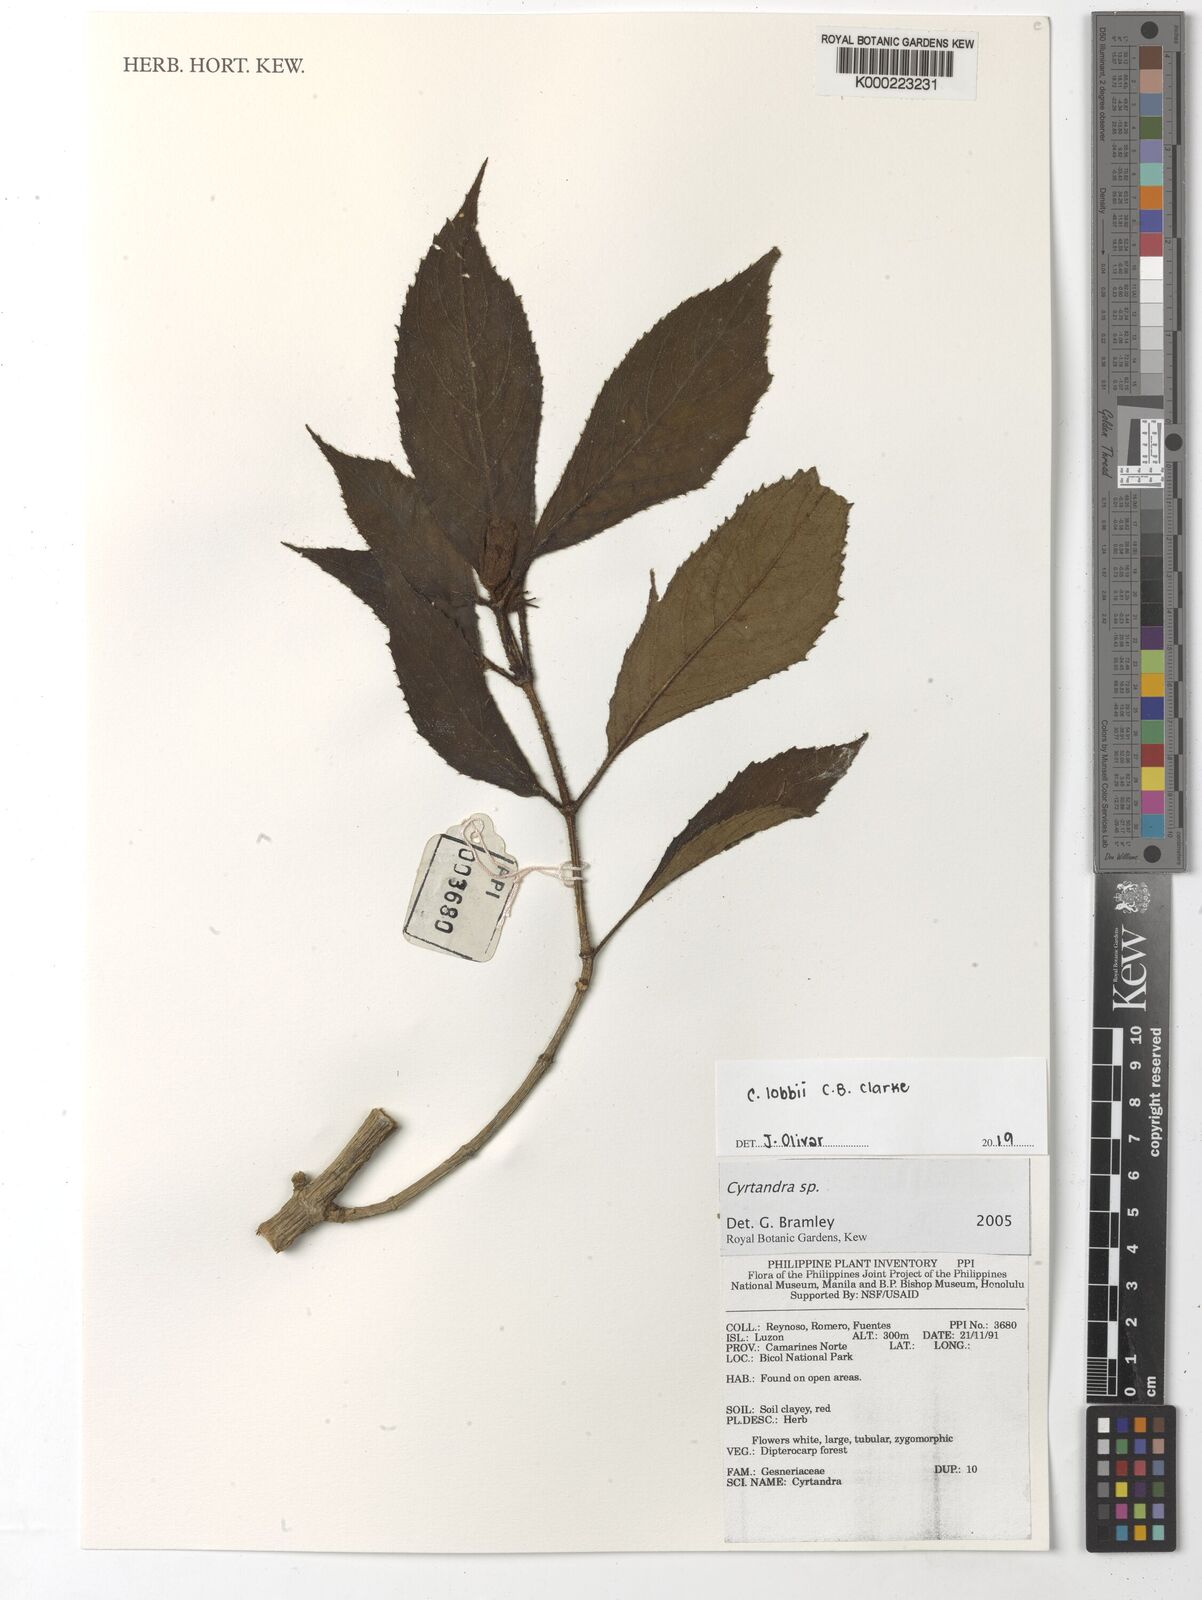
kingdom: Plantae
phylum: Tracheophyta
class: Magnoliopsida
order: Lamiales
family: Gesneriaceae
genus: Cyrtandra
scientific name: Cyrtandra
